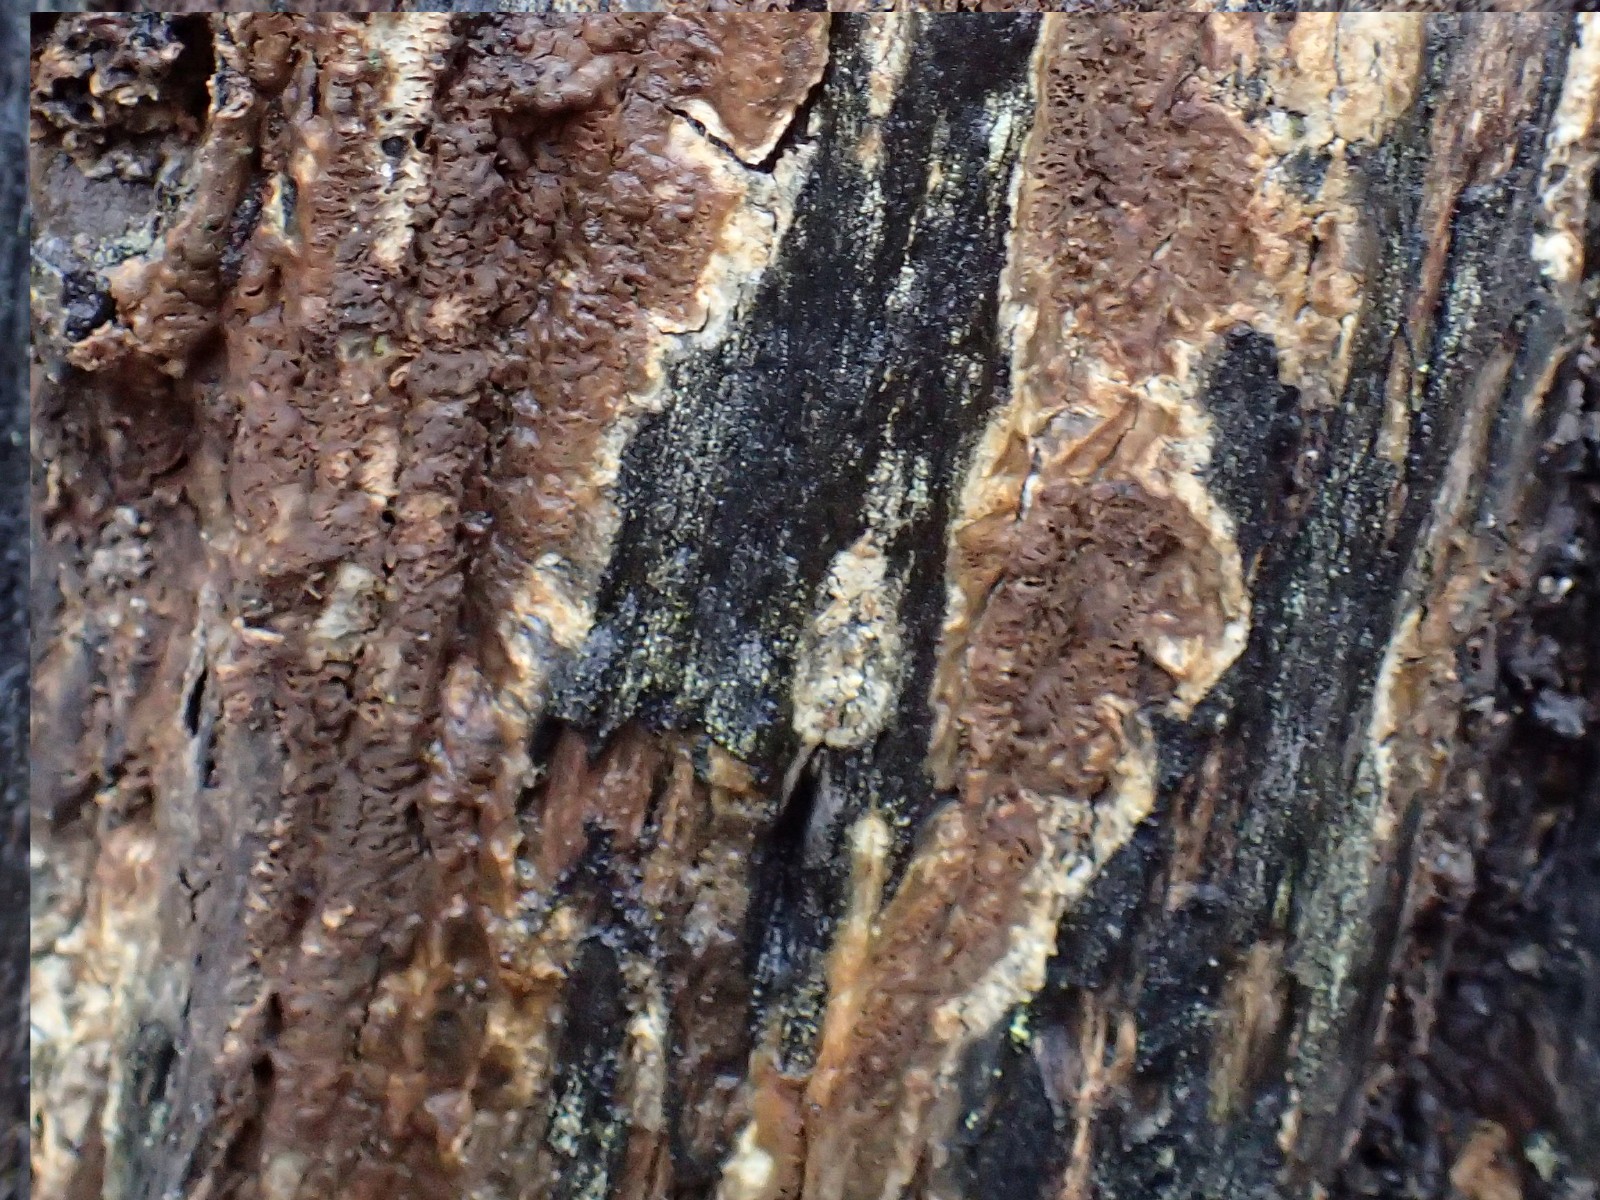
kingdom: Fungi
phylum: Basidiomycota
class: Agaricomycetes
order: Boletales
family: Coniophoraceae
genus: Coniophora
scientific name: Coniophora puteana
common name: gul tømmersvamp
